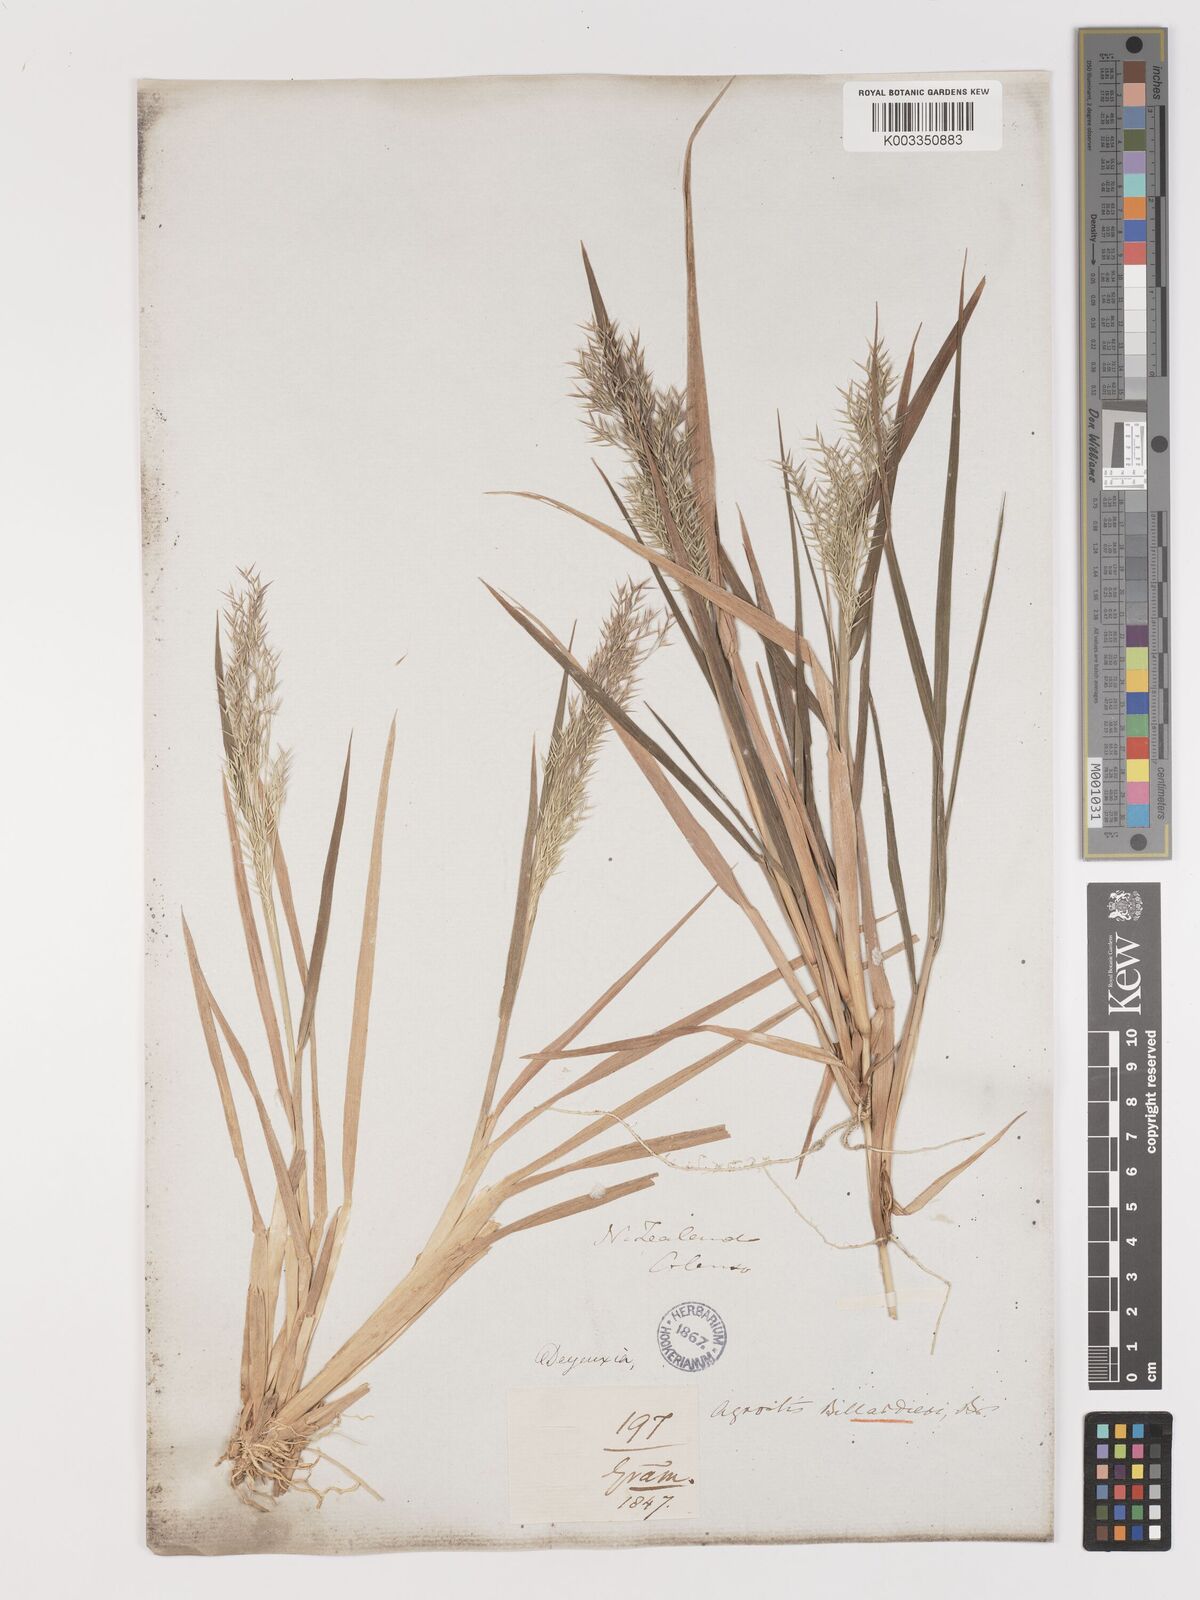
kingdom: Plantae
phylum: Tracheophyta
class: Liliopsida
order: Poales
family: Poaceae
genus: Lachnagrostis
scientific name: Lachnagrostis billardierei
